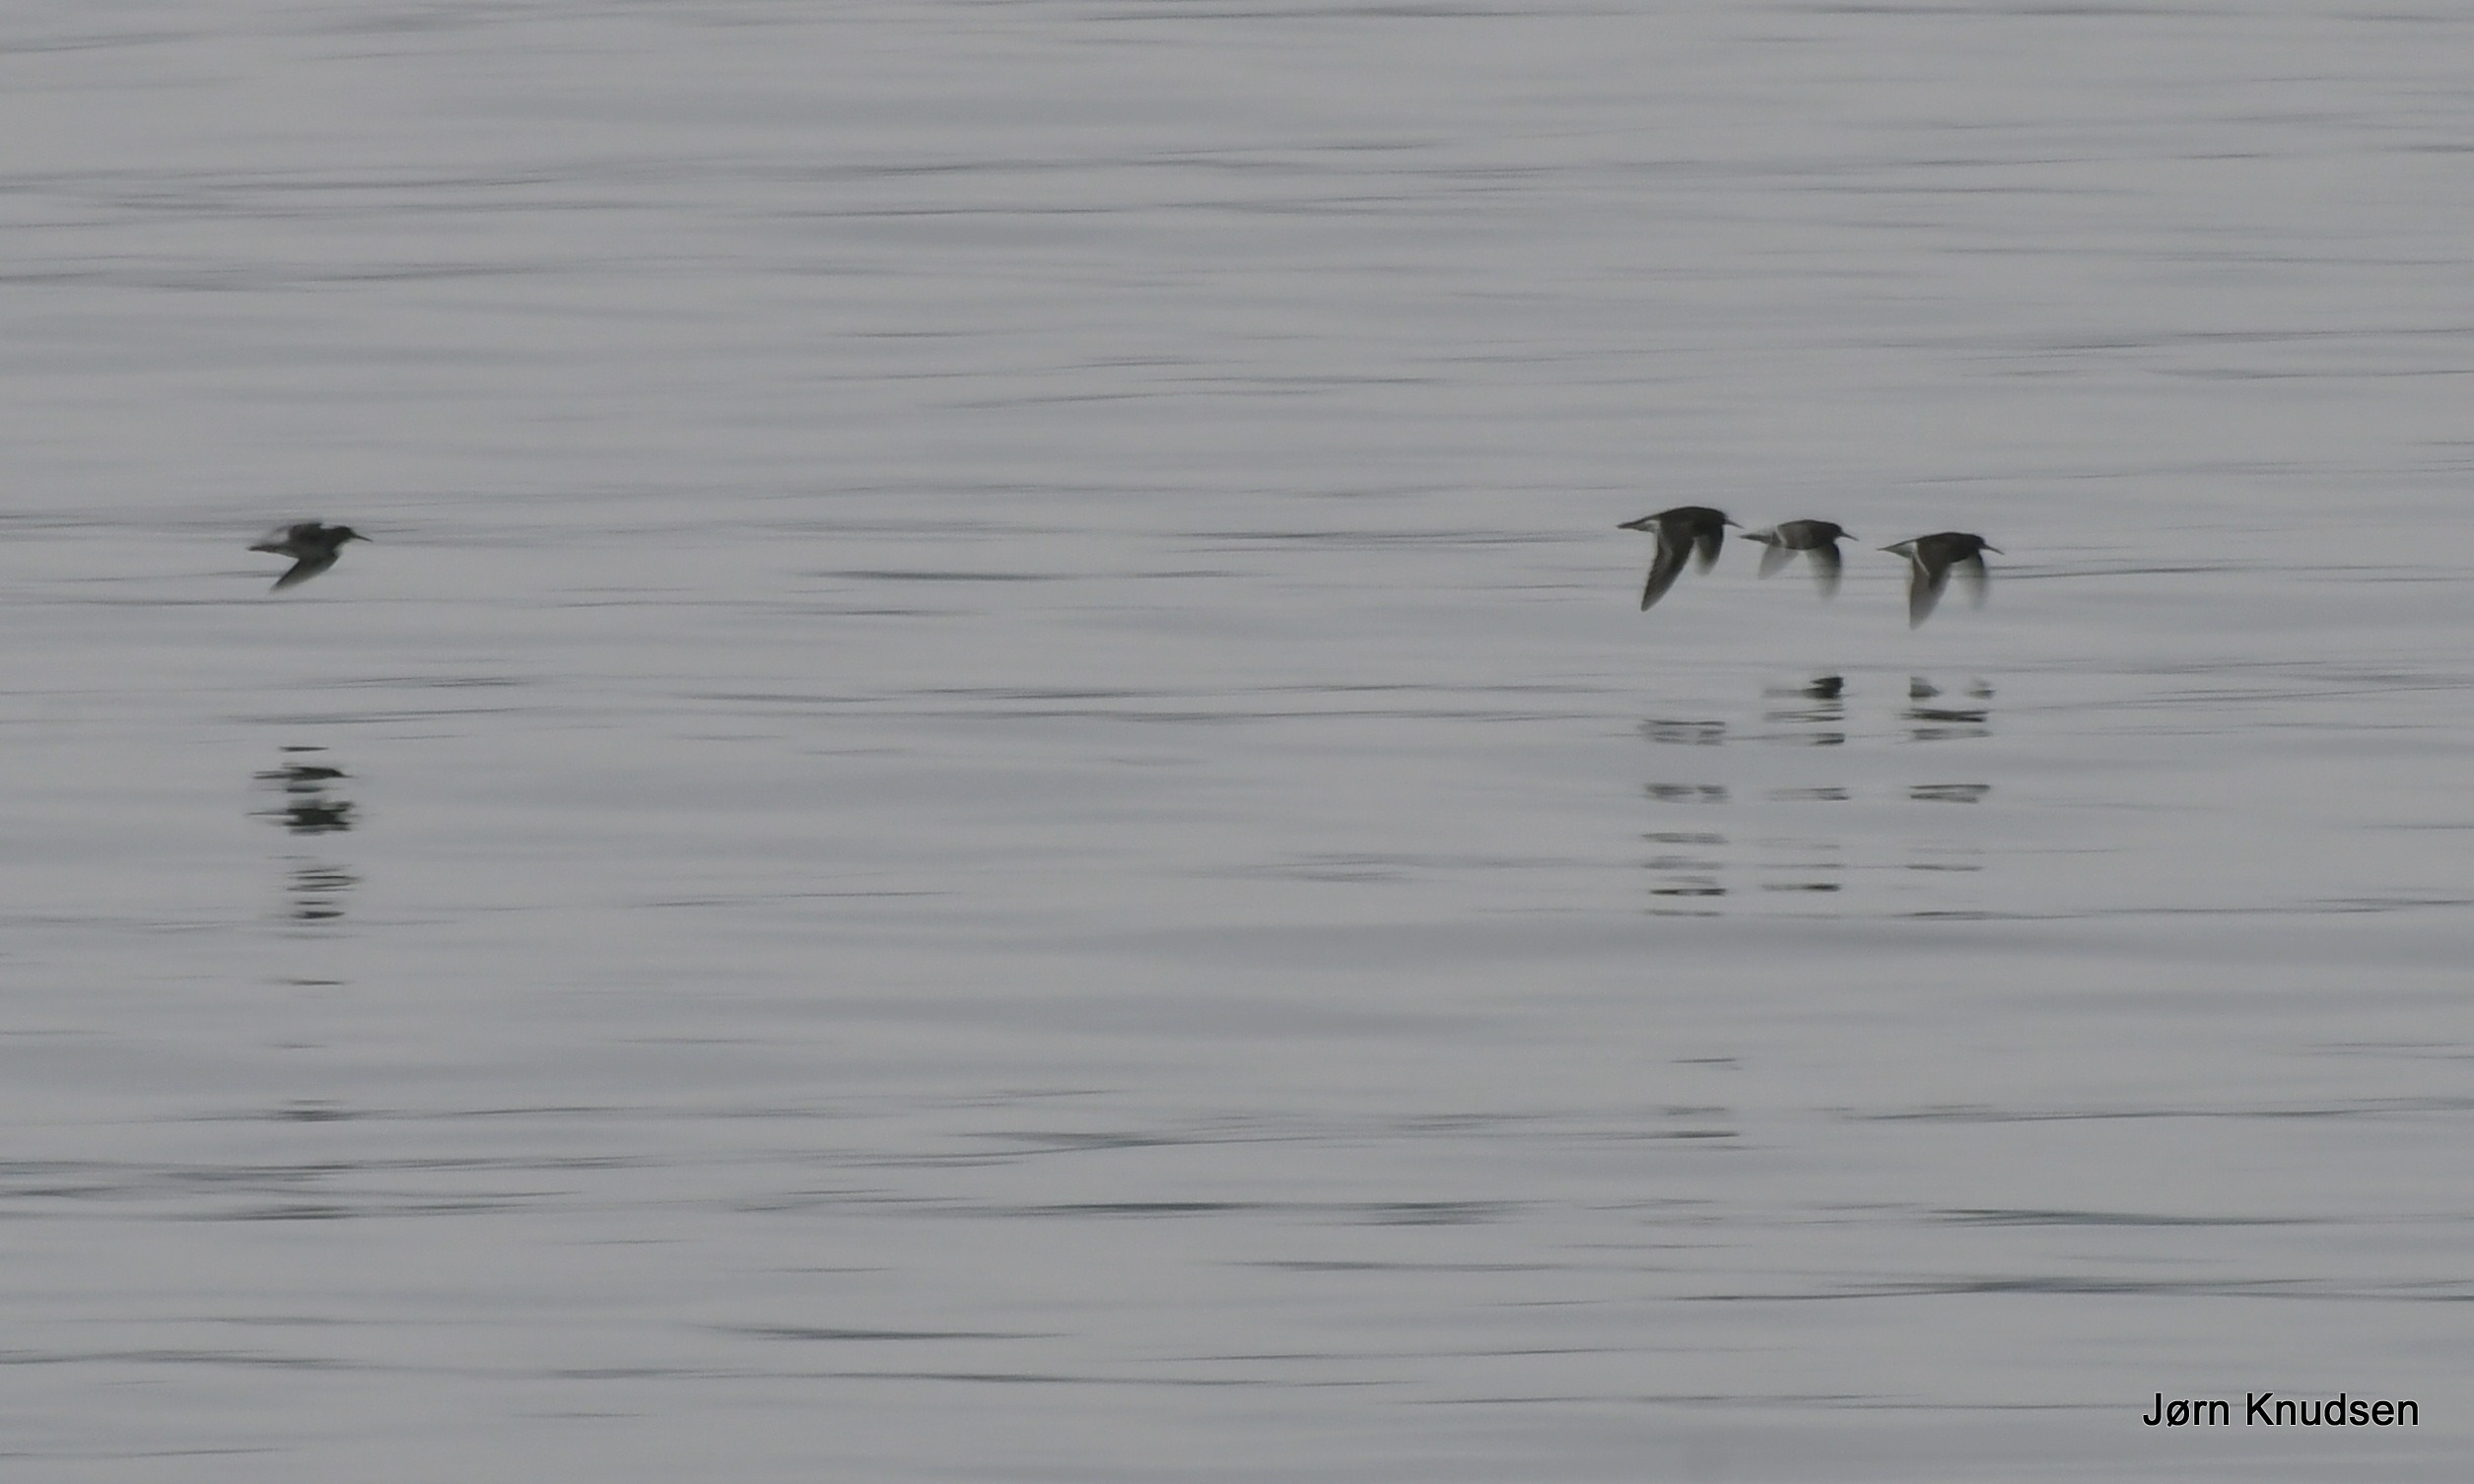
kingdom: Animalia
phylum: Chordata
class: Aves
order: Charadriiformes
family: Scolopacidae
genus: Calidris
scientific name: Calidris maritima
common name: Sortgrå ryle
